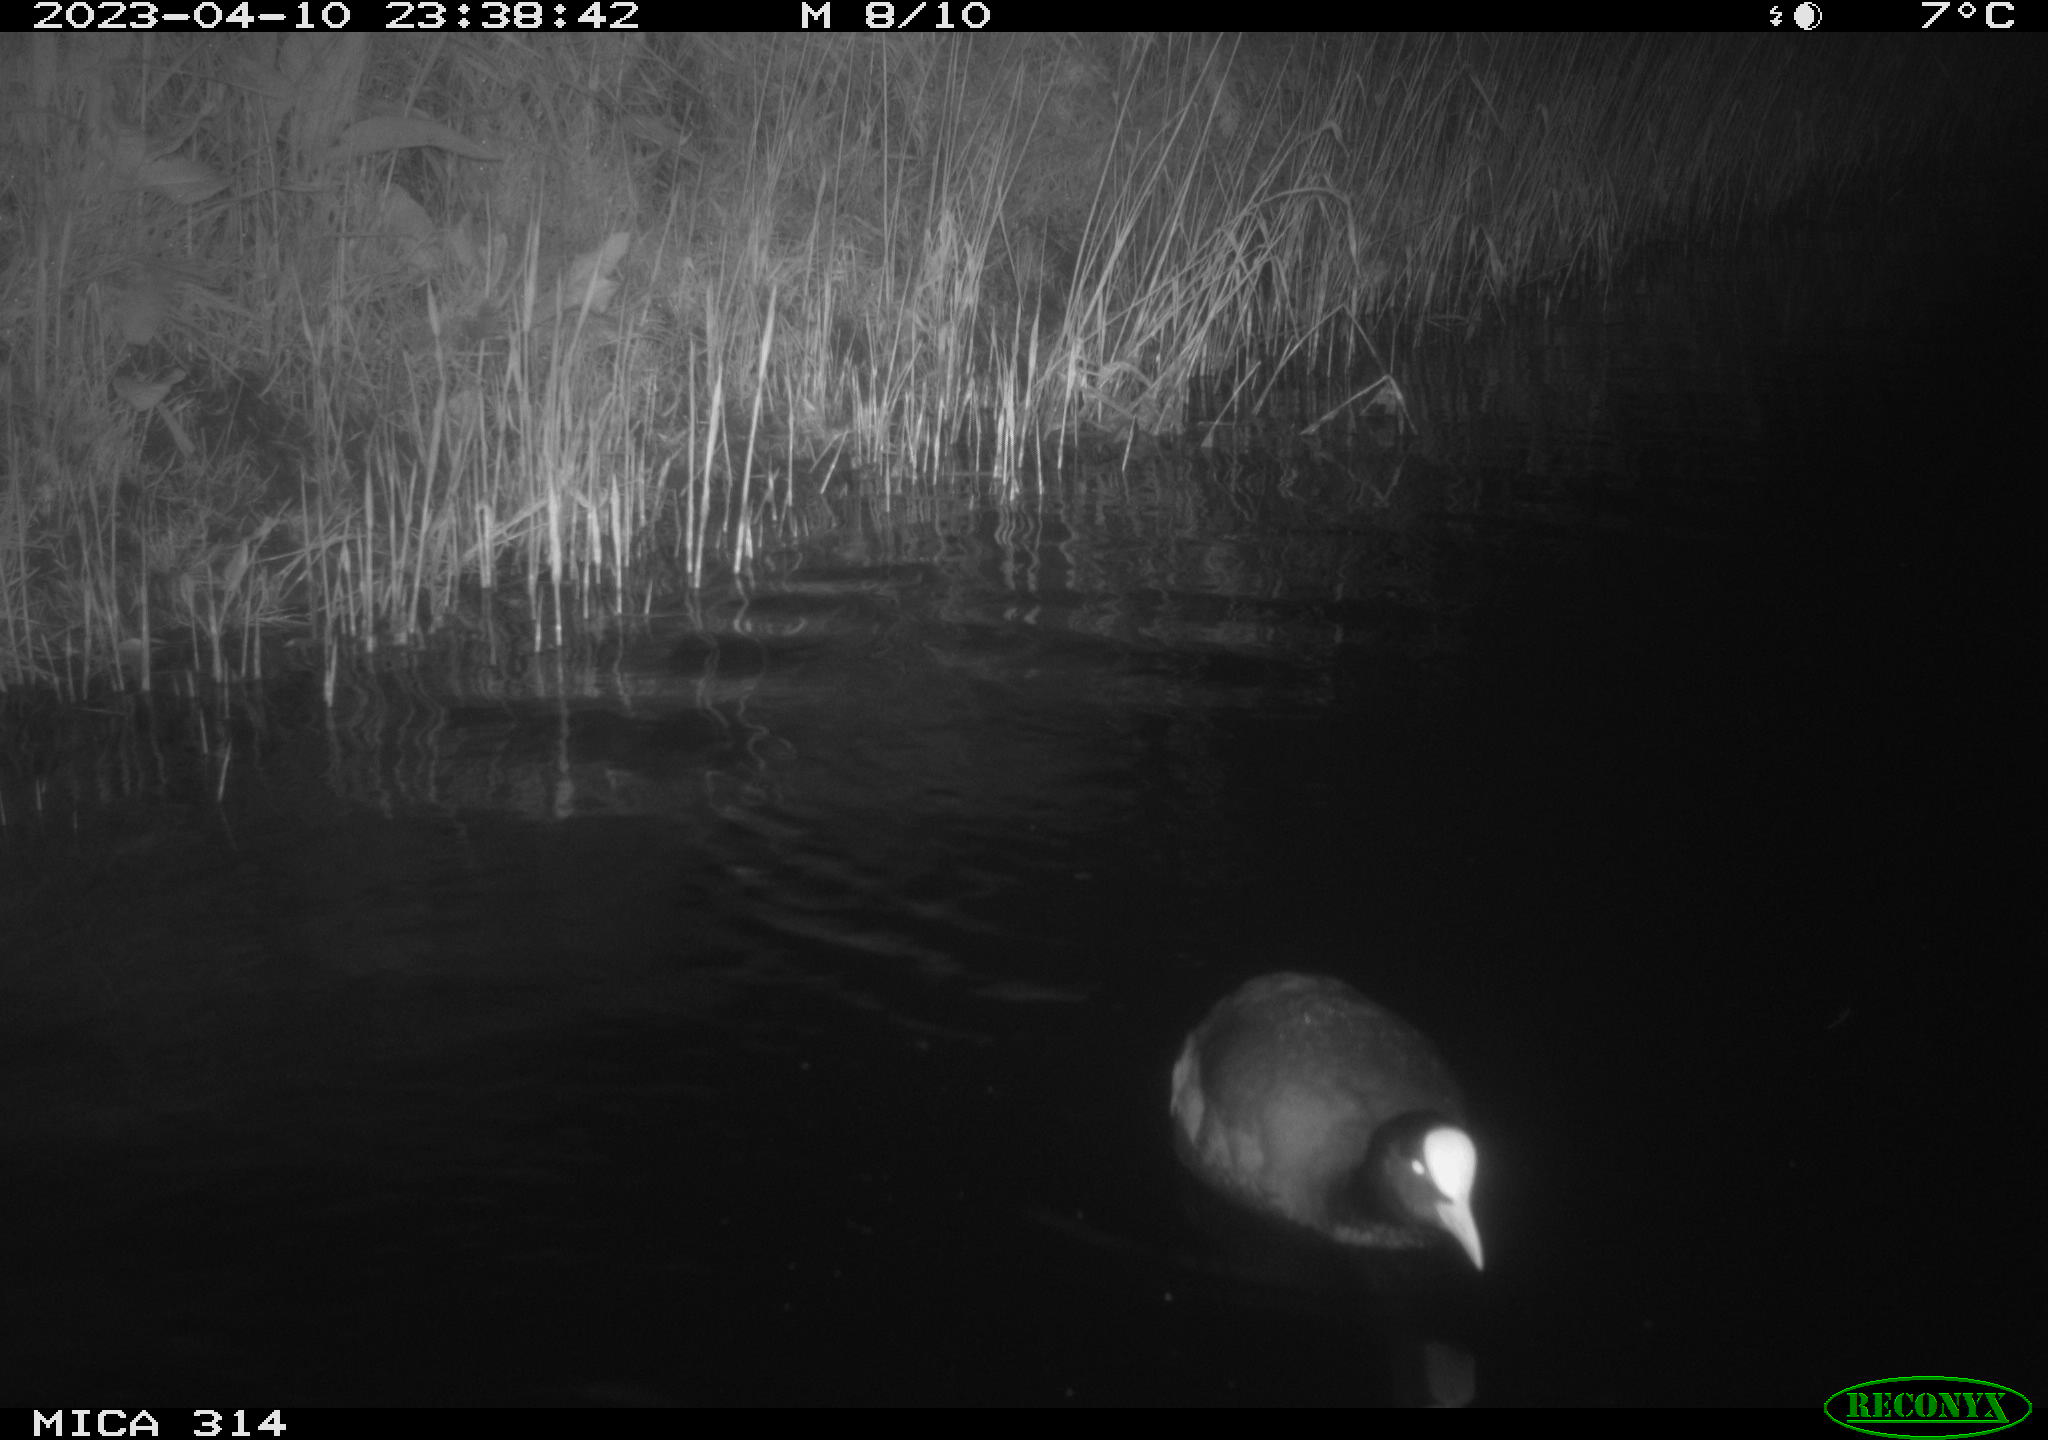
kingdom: Animalia
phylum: Chordata
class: Aves
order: Gruiformes
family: Rallidae
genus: Fulica
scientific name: Fulica atra
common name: Eurasian coot
